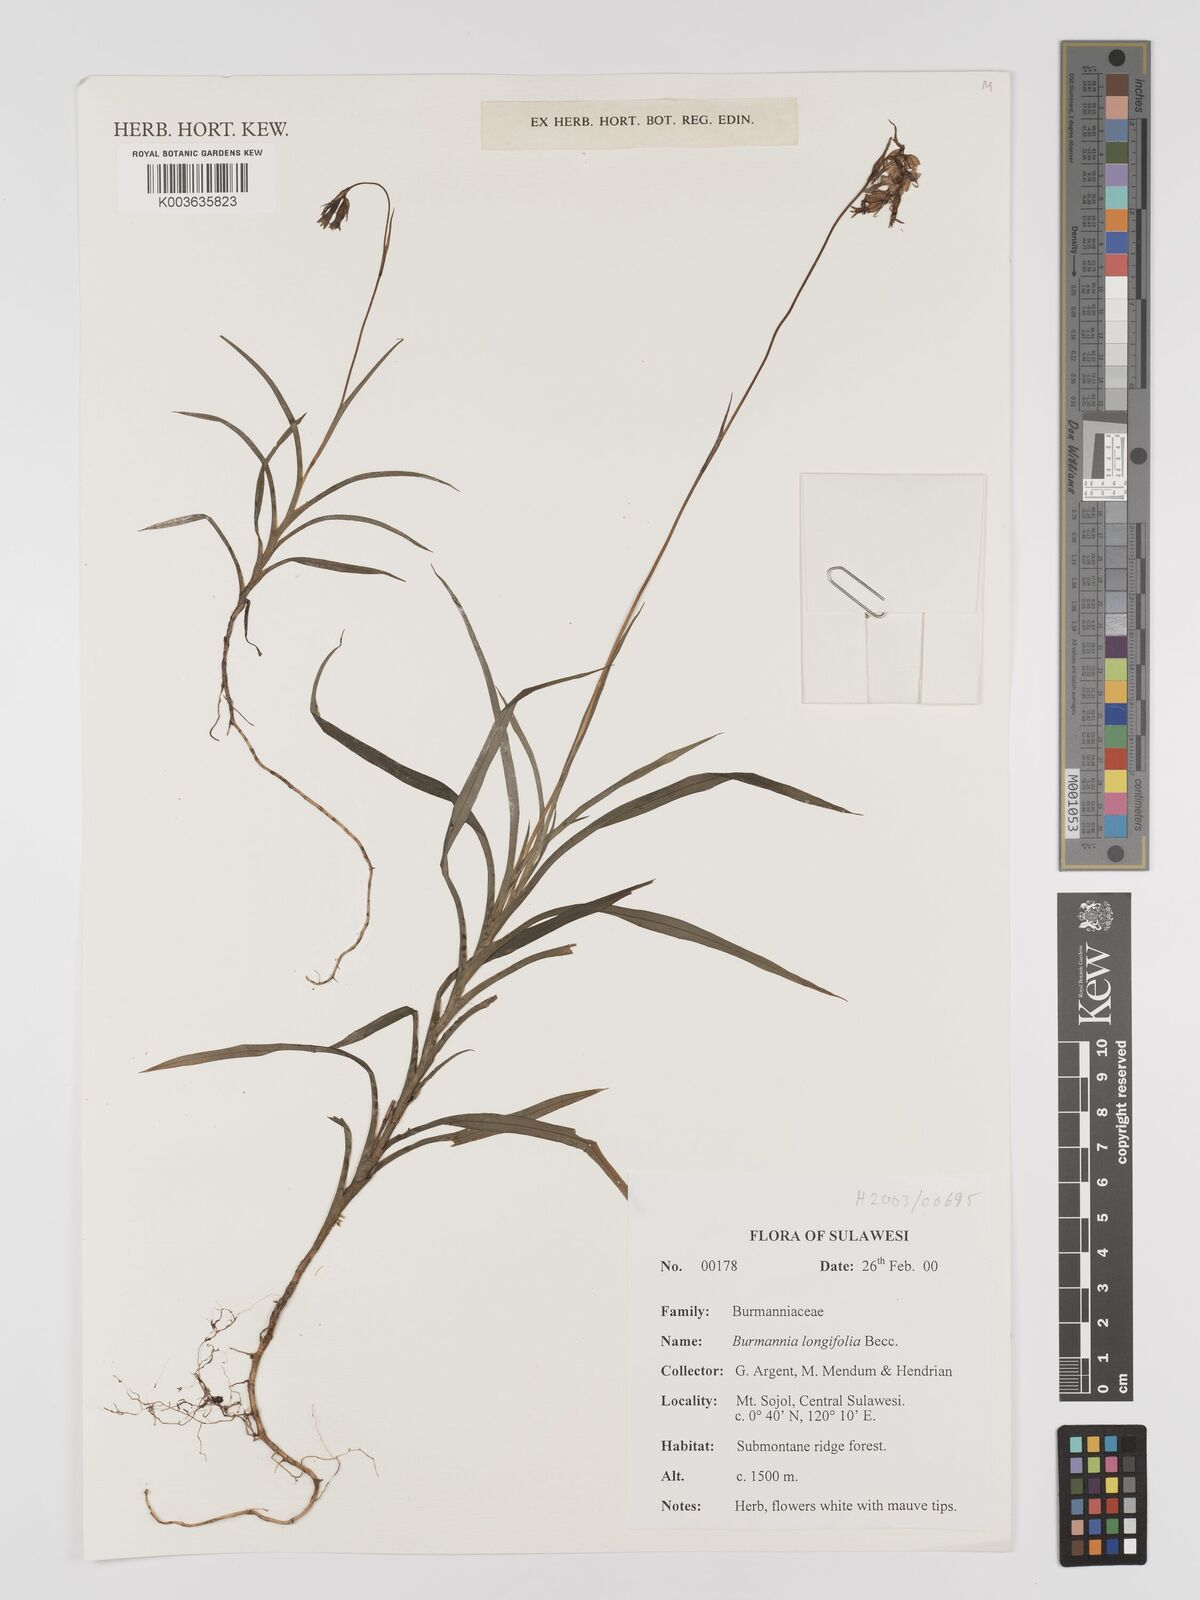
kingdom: Plantae
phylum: Tracheophyta
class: Liliopsida
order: Dioscoreales
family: Burmanniaceae
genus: Burmannia
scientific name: Burmannia longifolia
